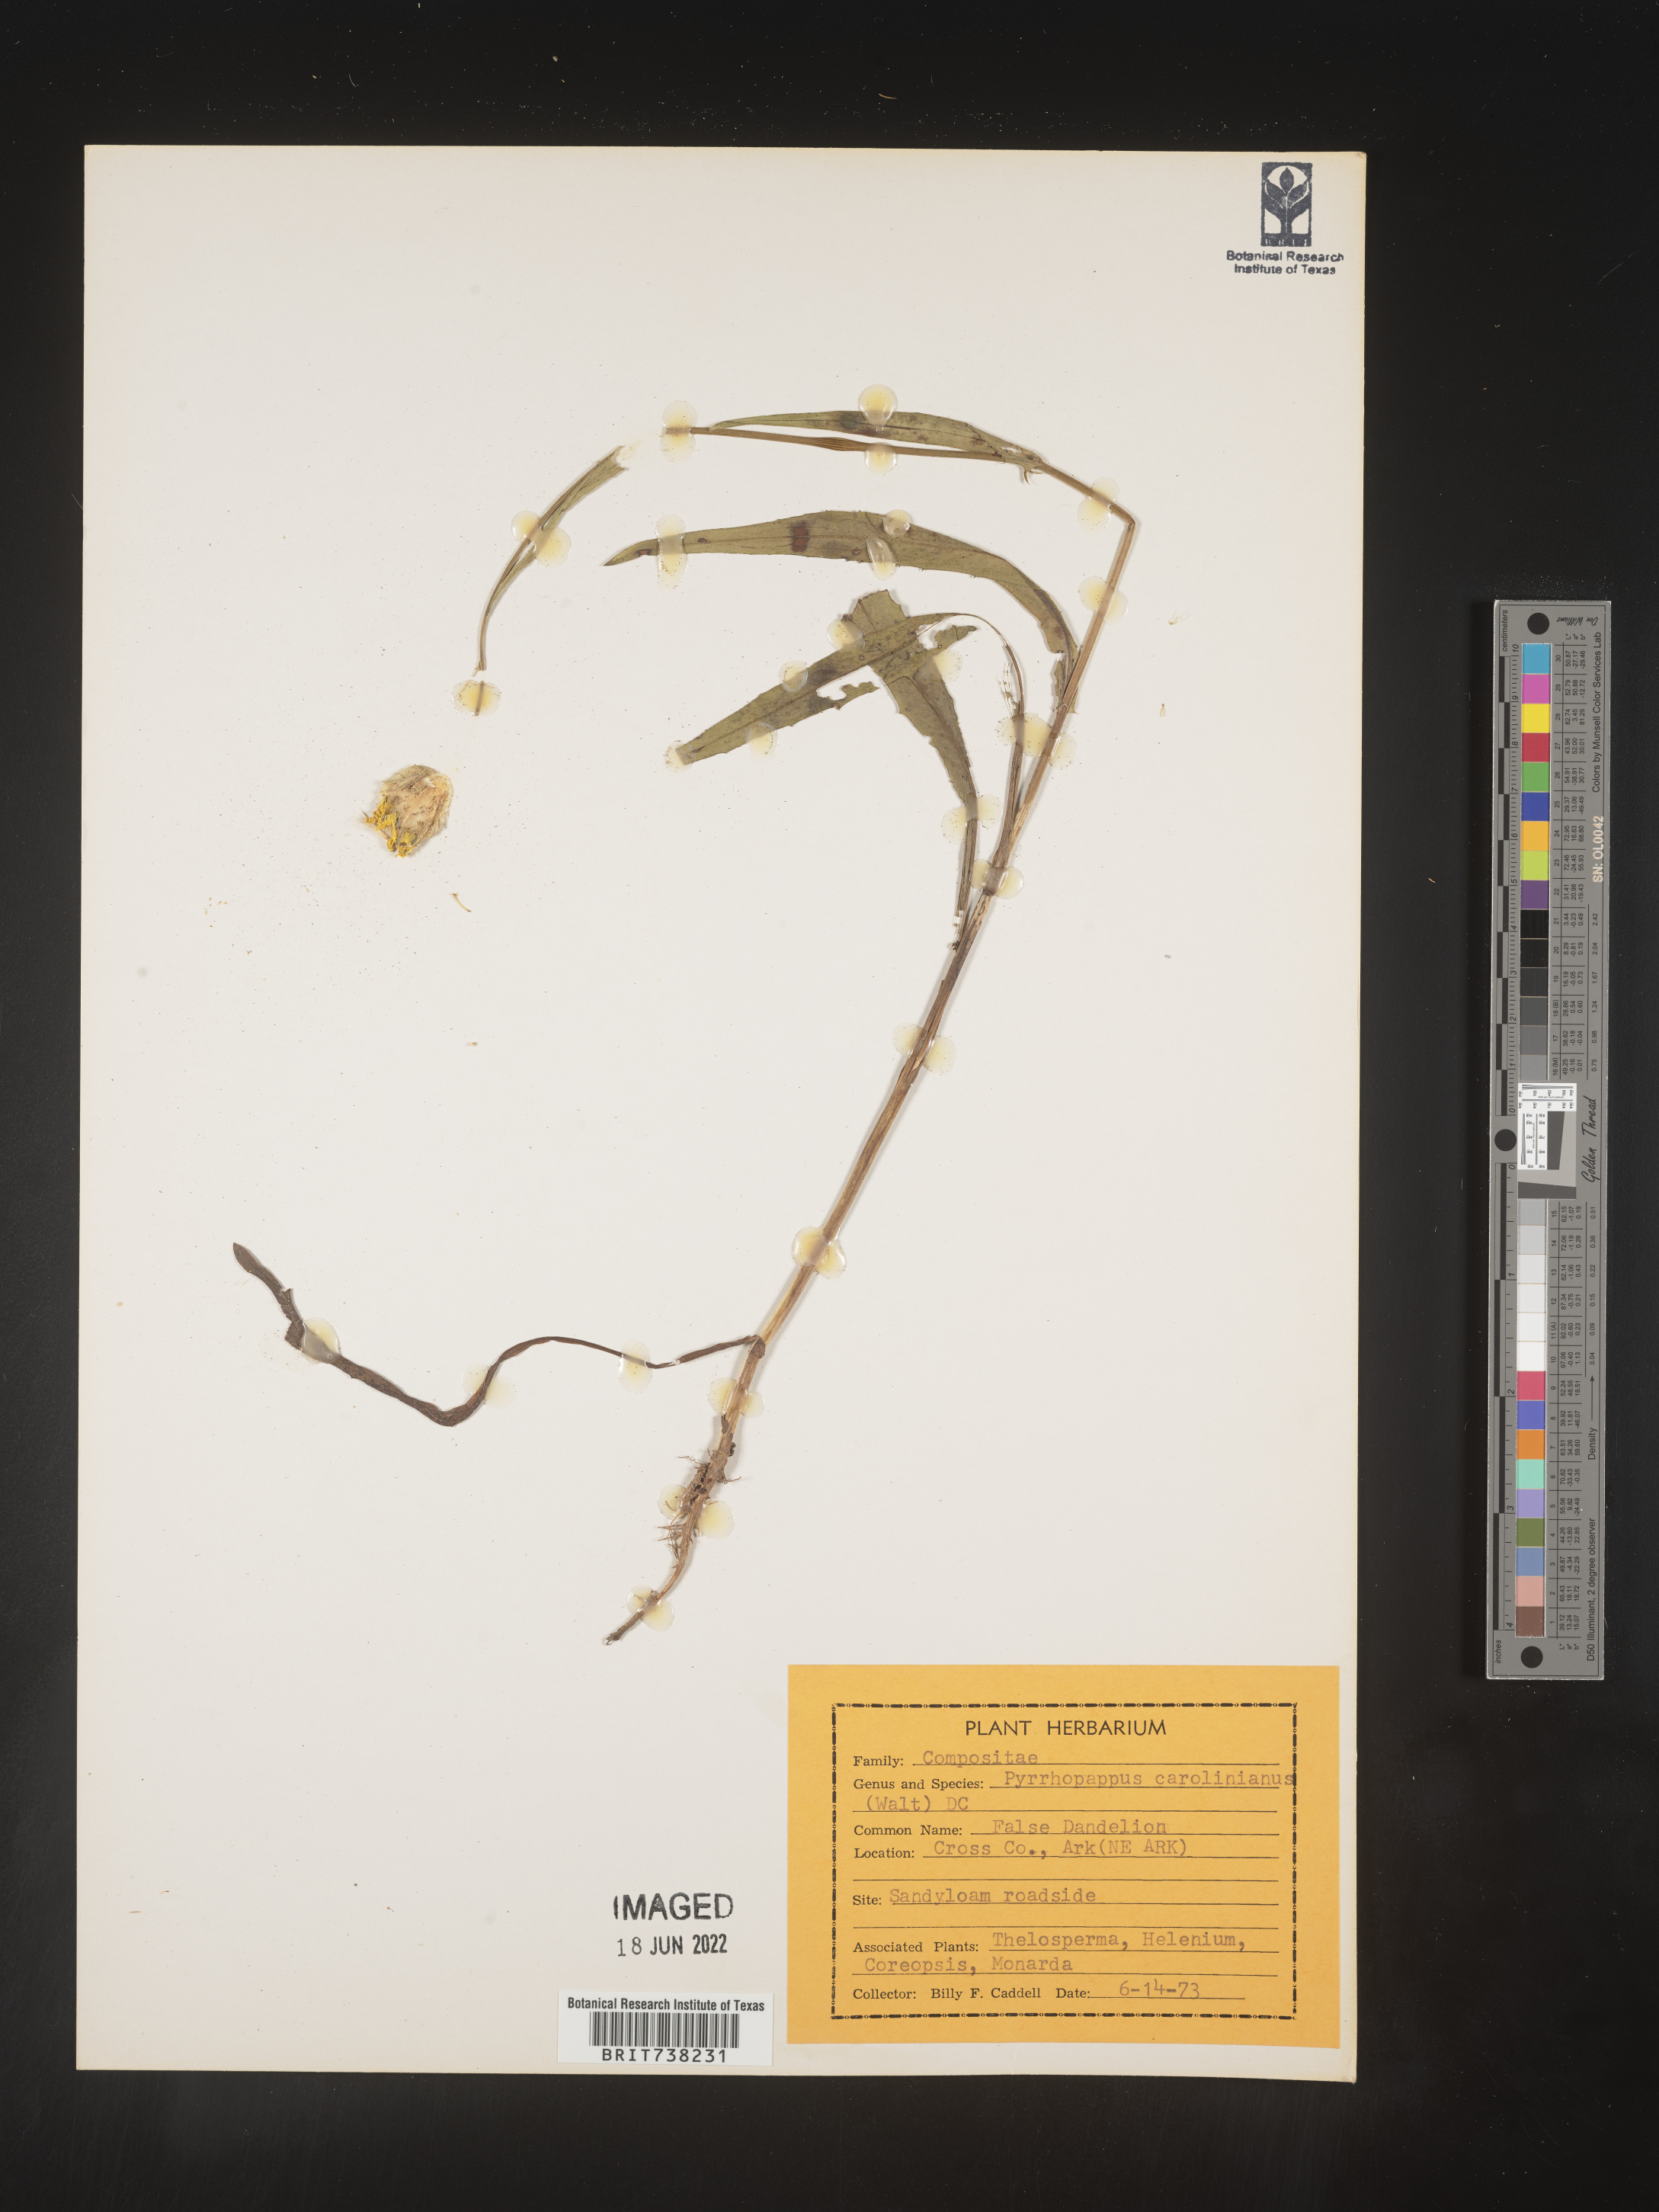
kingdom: Plantae
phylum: Tracheophyta
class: Magnoliopsida
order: Asterales
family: Asteraceae
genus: Pyrrhopappus
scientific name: Pyrrhopappus carolinianus
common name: Carolina desert-chicory
